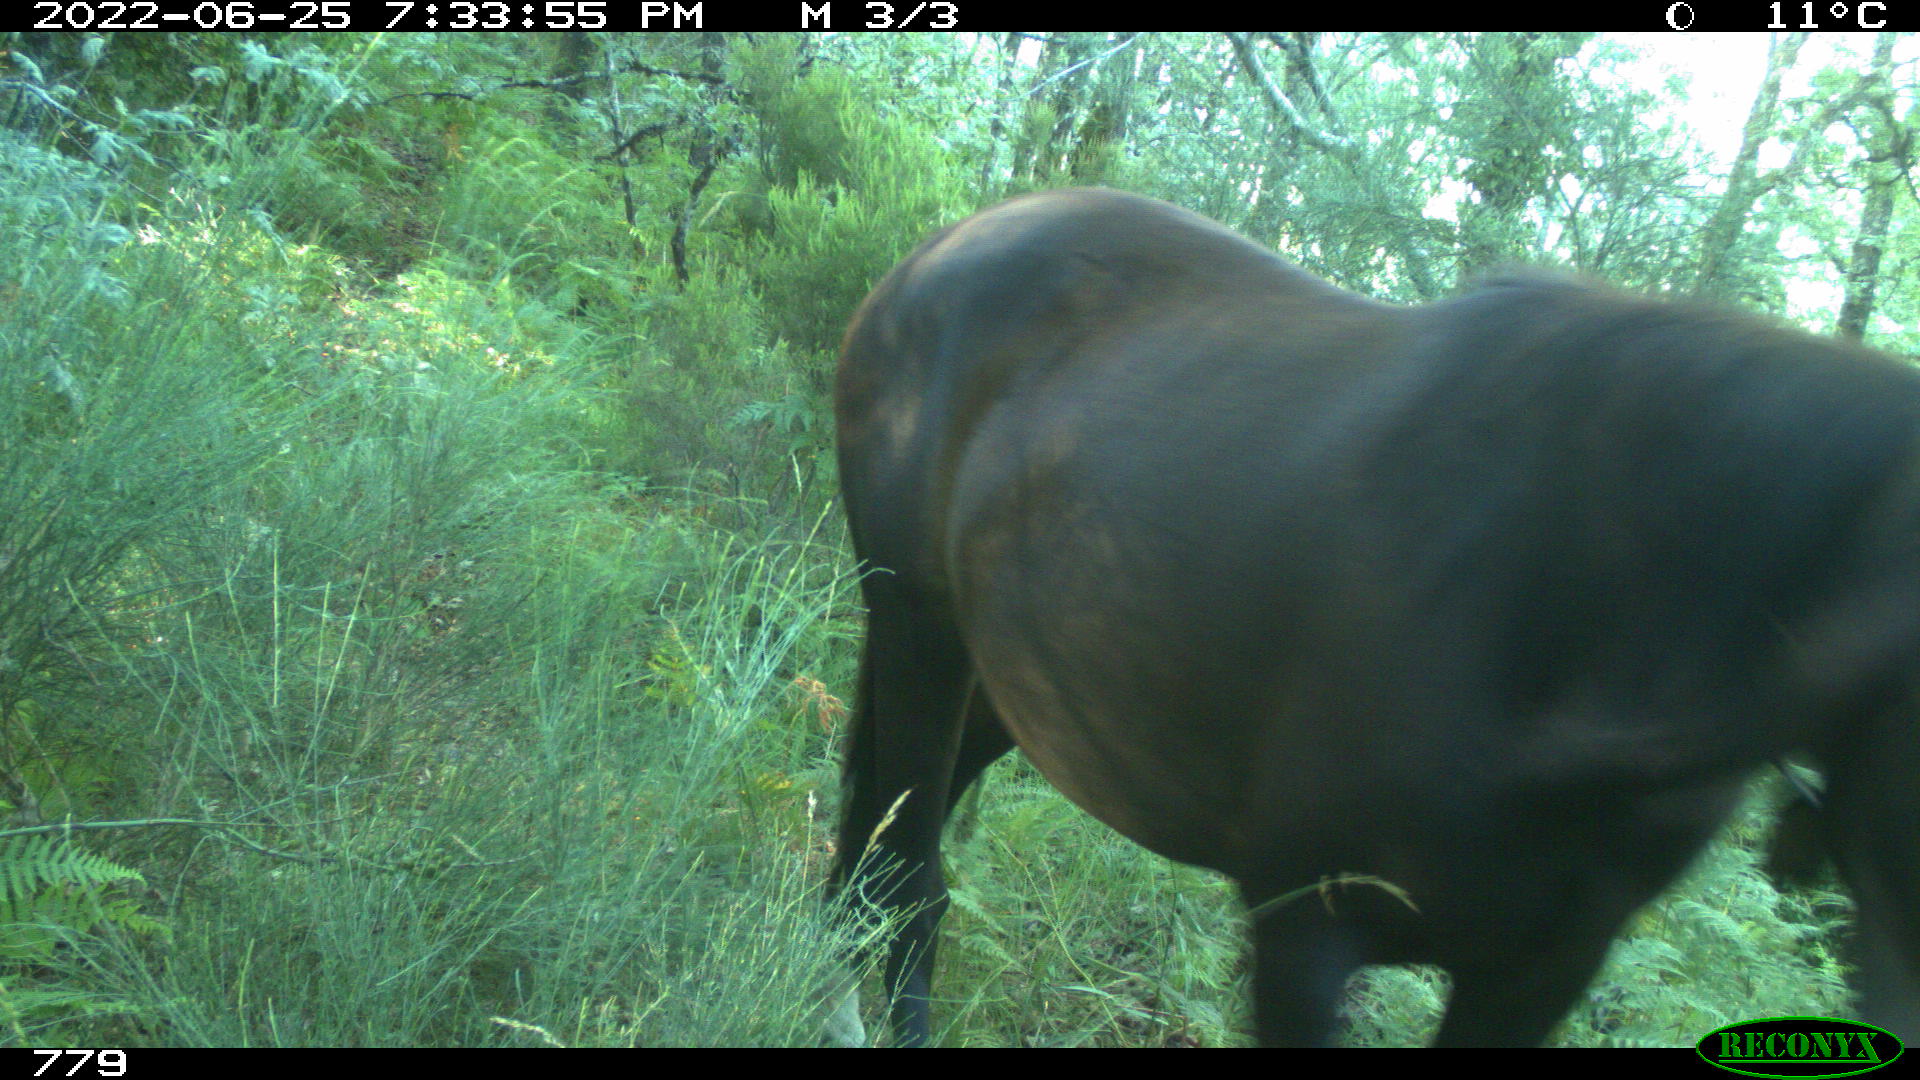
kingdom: Animalia
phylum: Chordata
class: Mammalia
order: Perissodactyla
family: Equidae
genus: Equus
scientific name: Equus caballus
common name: Horse
